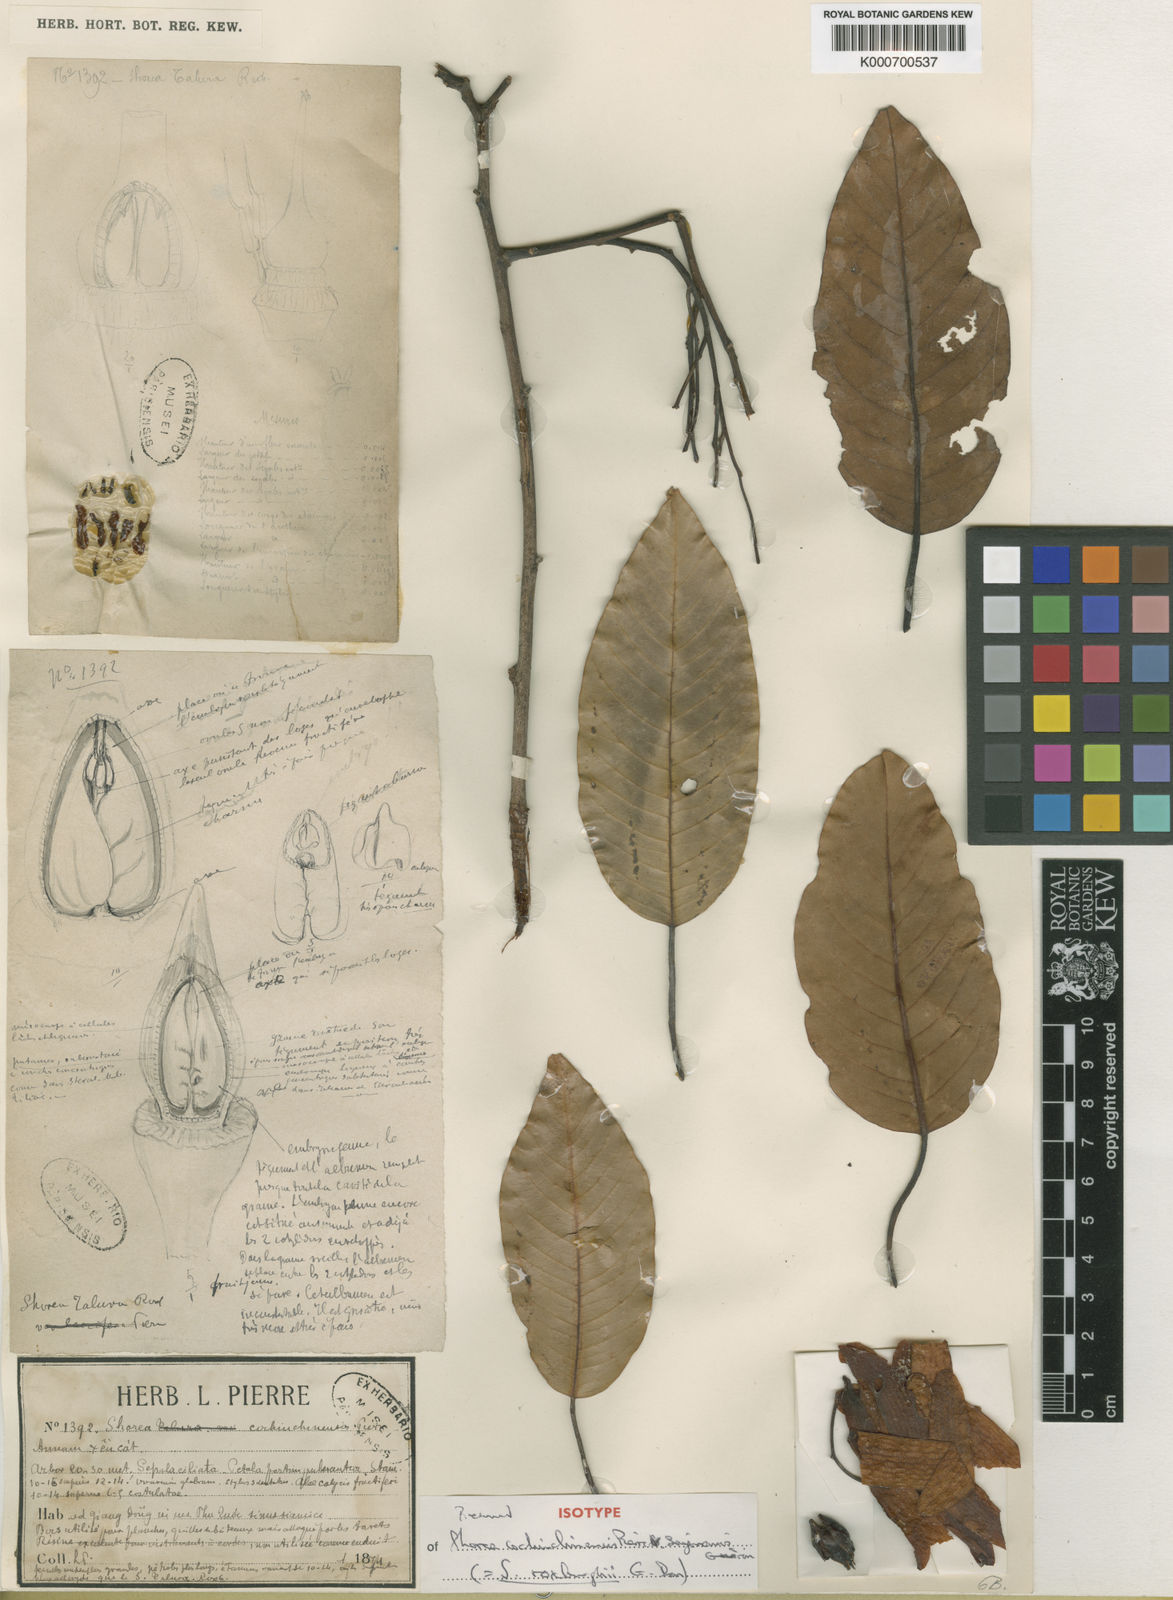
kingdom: Plantae
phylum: Tracheophyta
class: Magnoliopsida
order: Malvales
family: Dipterocarpaceae
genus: Anthoshorea
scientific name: Anthoshorea roxburghii
